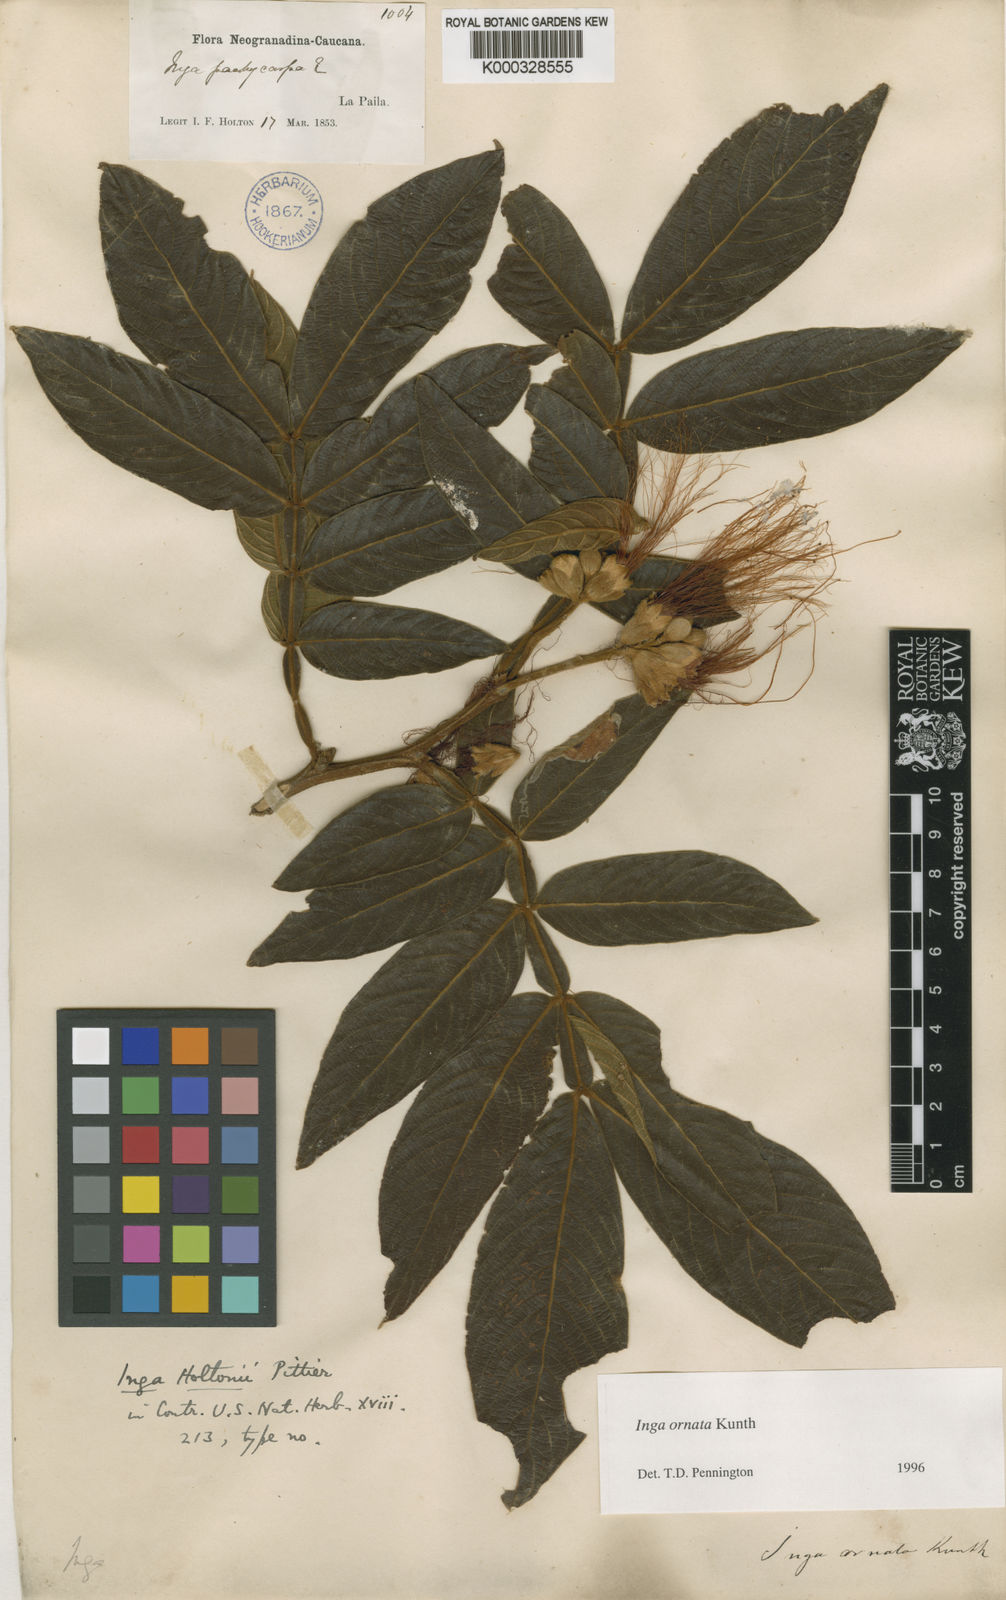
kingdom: Plantae
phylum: Tracheophyta
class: Magnoliopsida
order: Fabales
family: Fabaceae
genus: Inga
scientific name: Inga ornata
